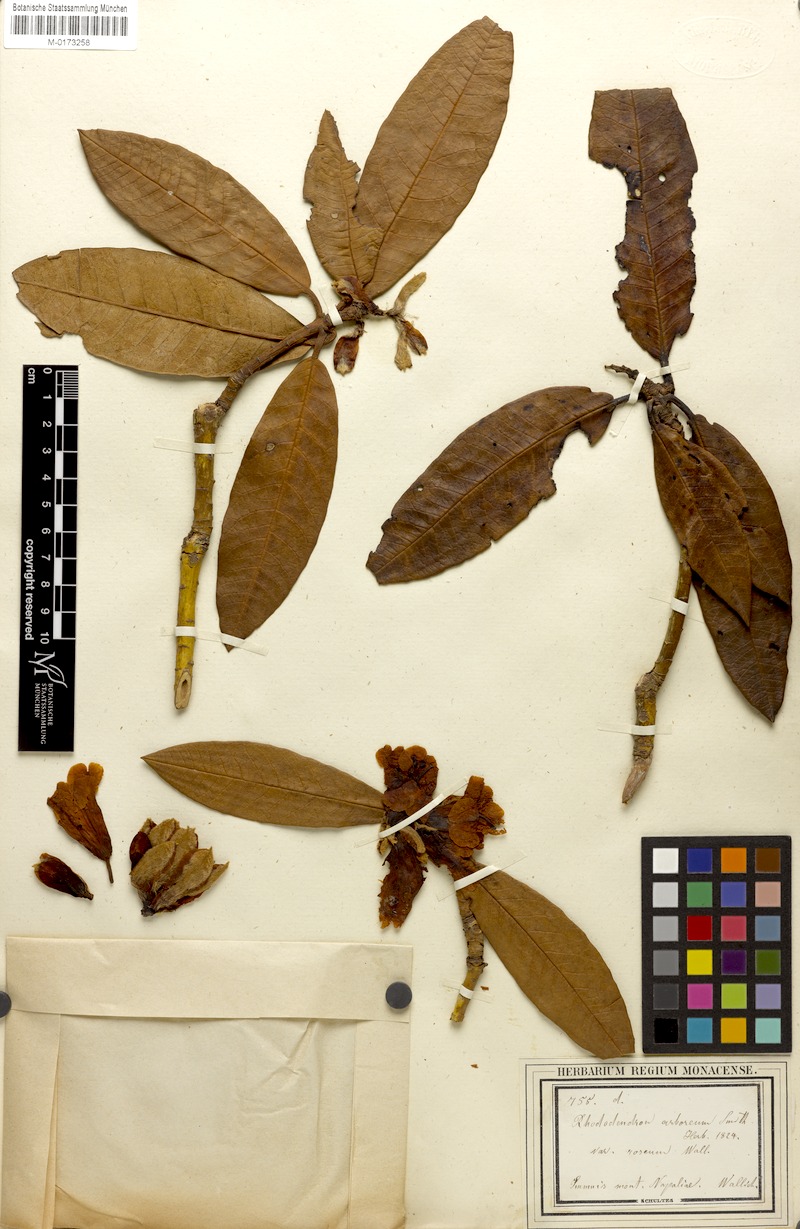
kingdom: Plantae
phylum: Tracheophyta
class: Magnoliopsida
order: Ericales
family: Ericaceae
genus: Rhododendron
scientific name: Rhododendron arboreum
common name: Tree rhododendron
